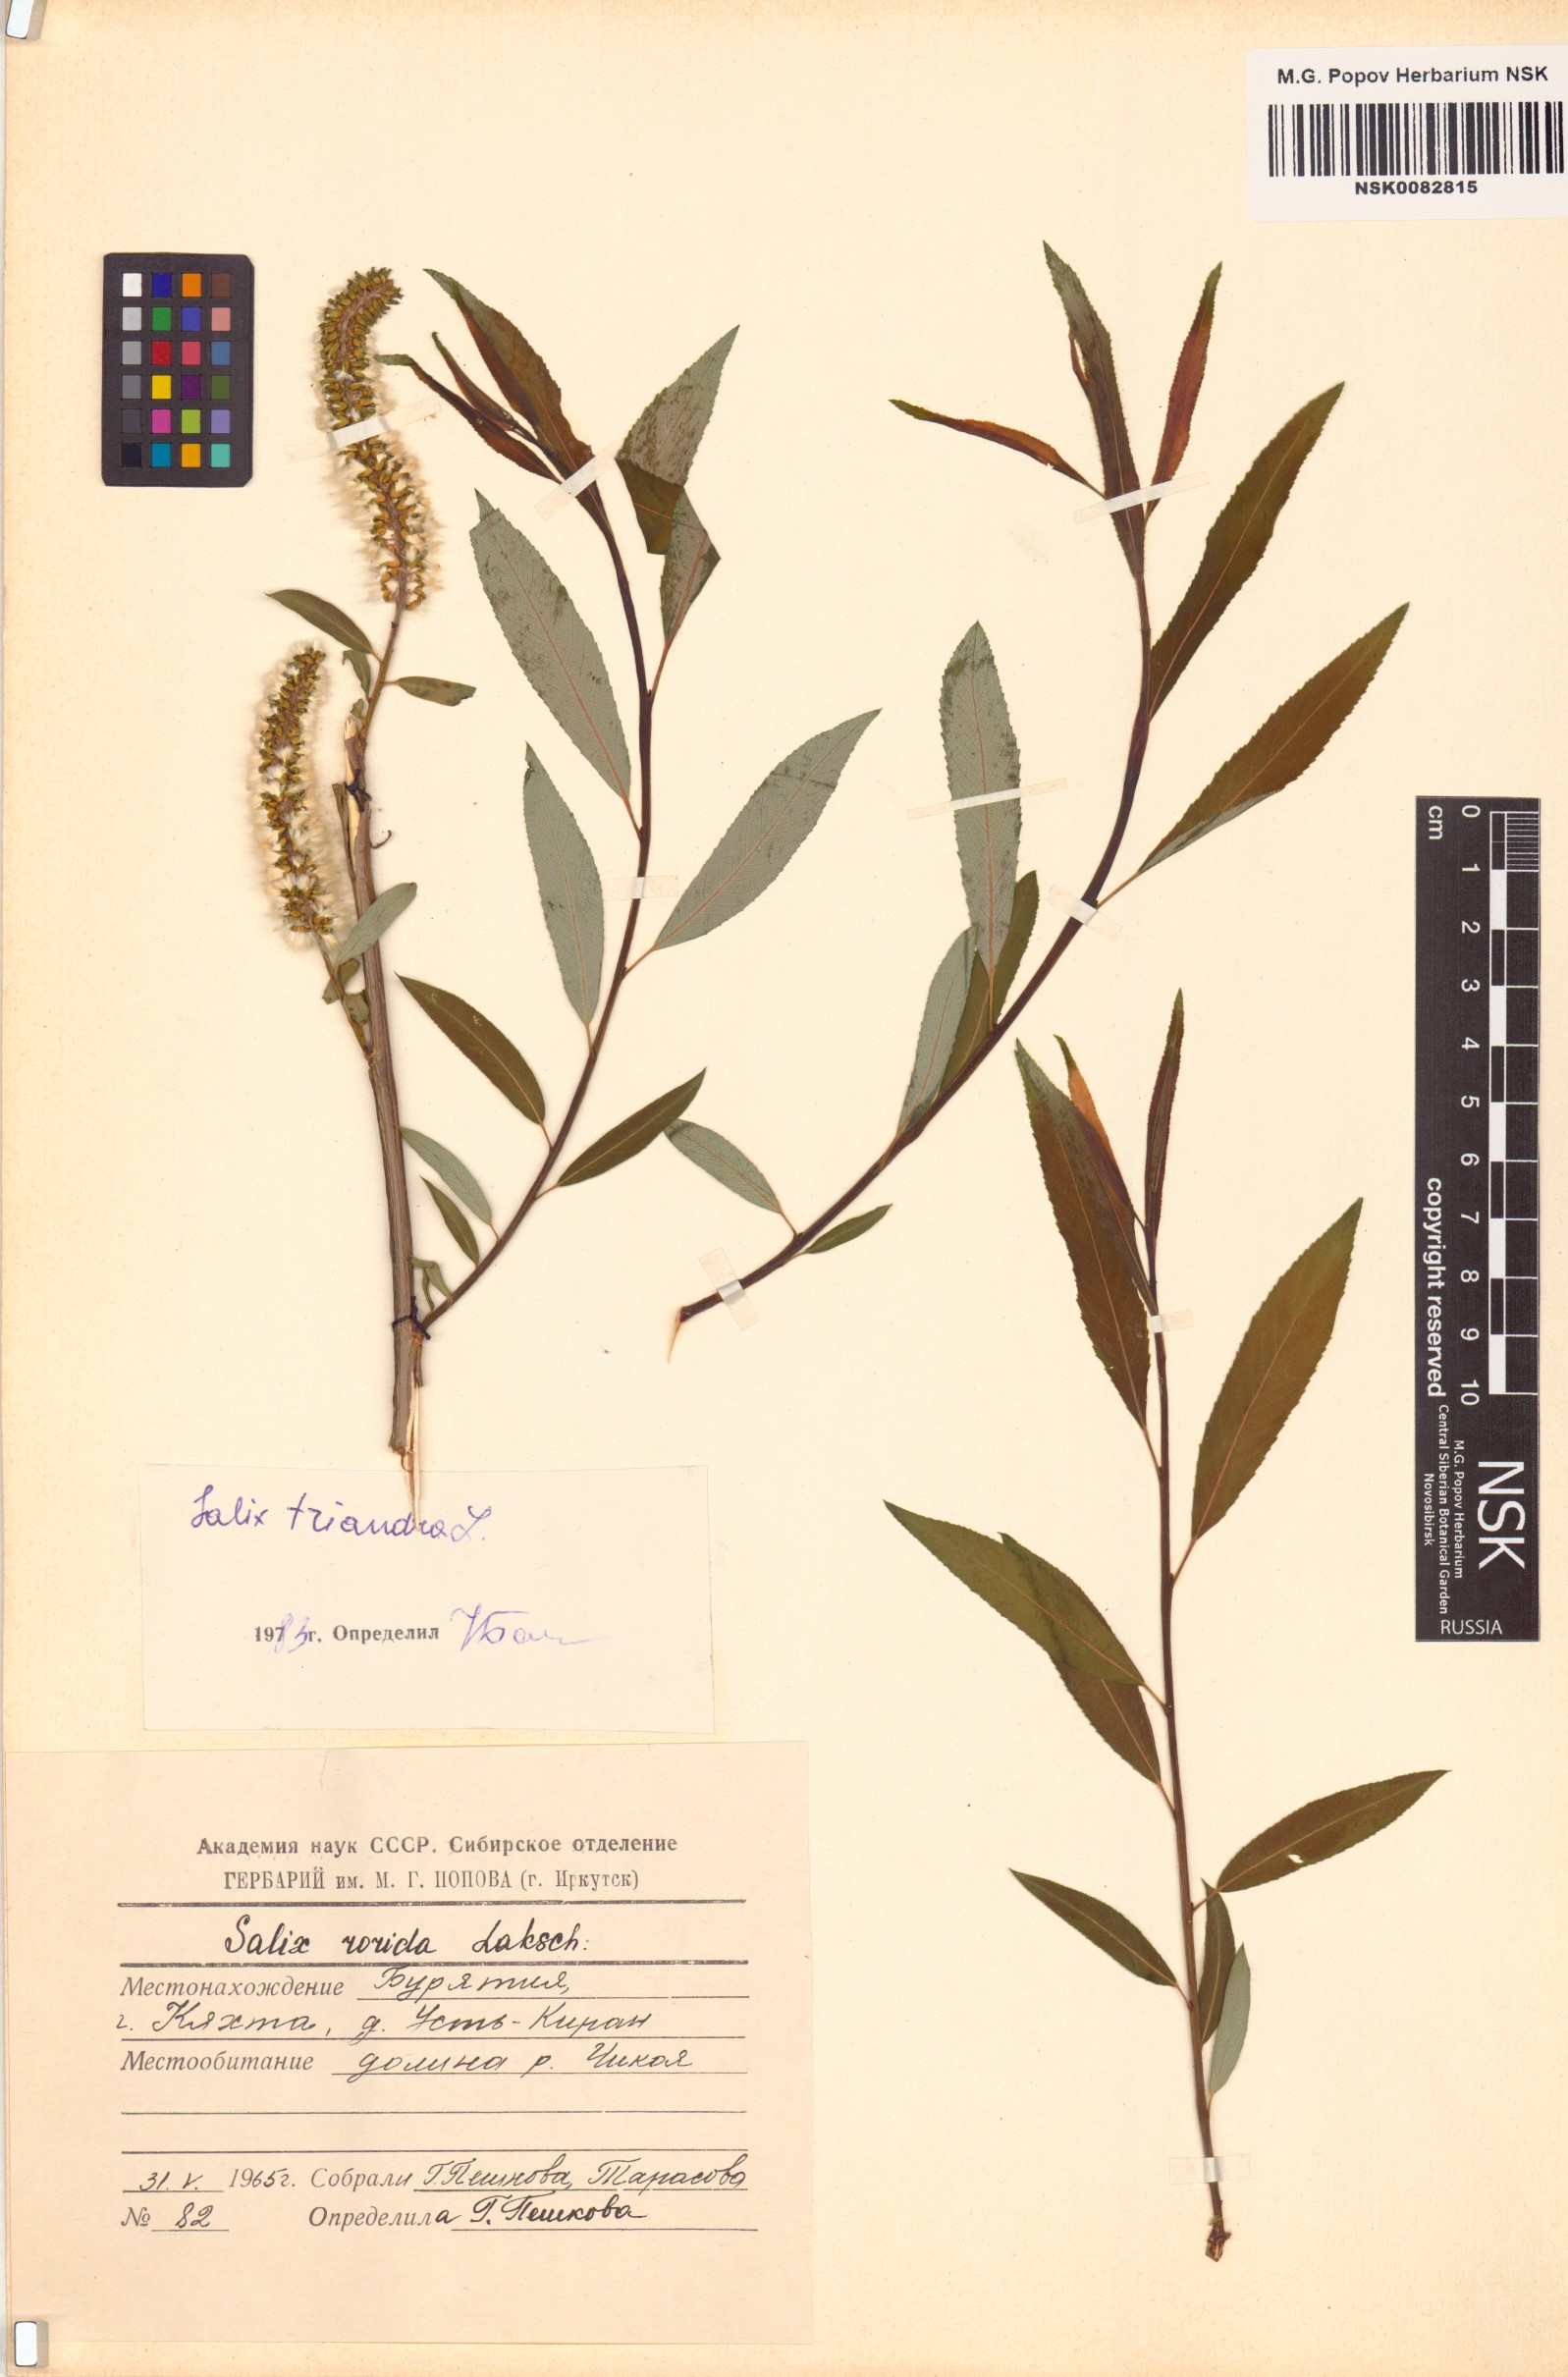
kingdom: Plantae
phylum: Tracheophyta
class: Magnoliopsida
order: Malpighiales
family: Salicaceae
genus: Salix
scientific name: Salix triandra
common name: Almond willow
